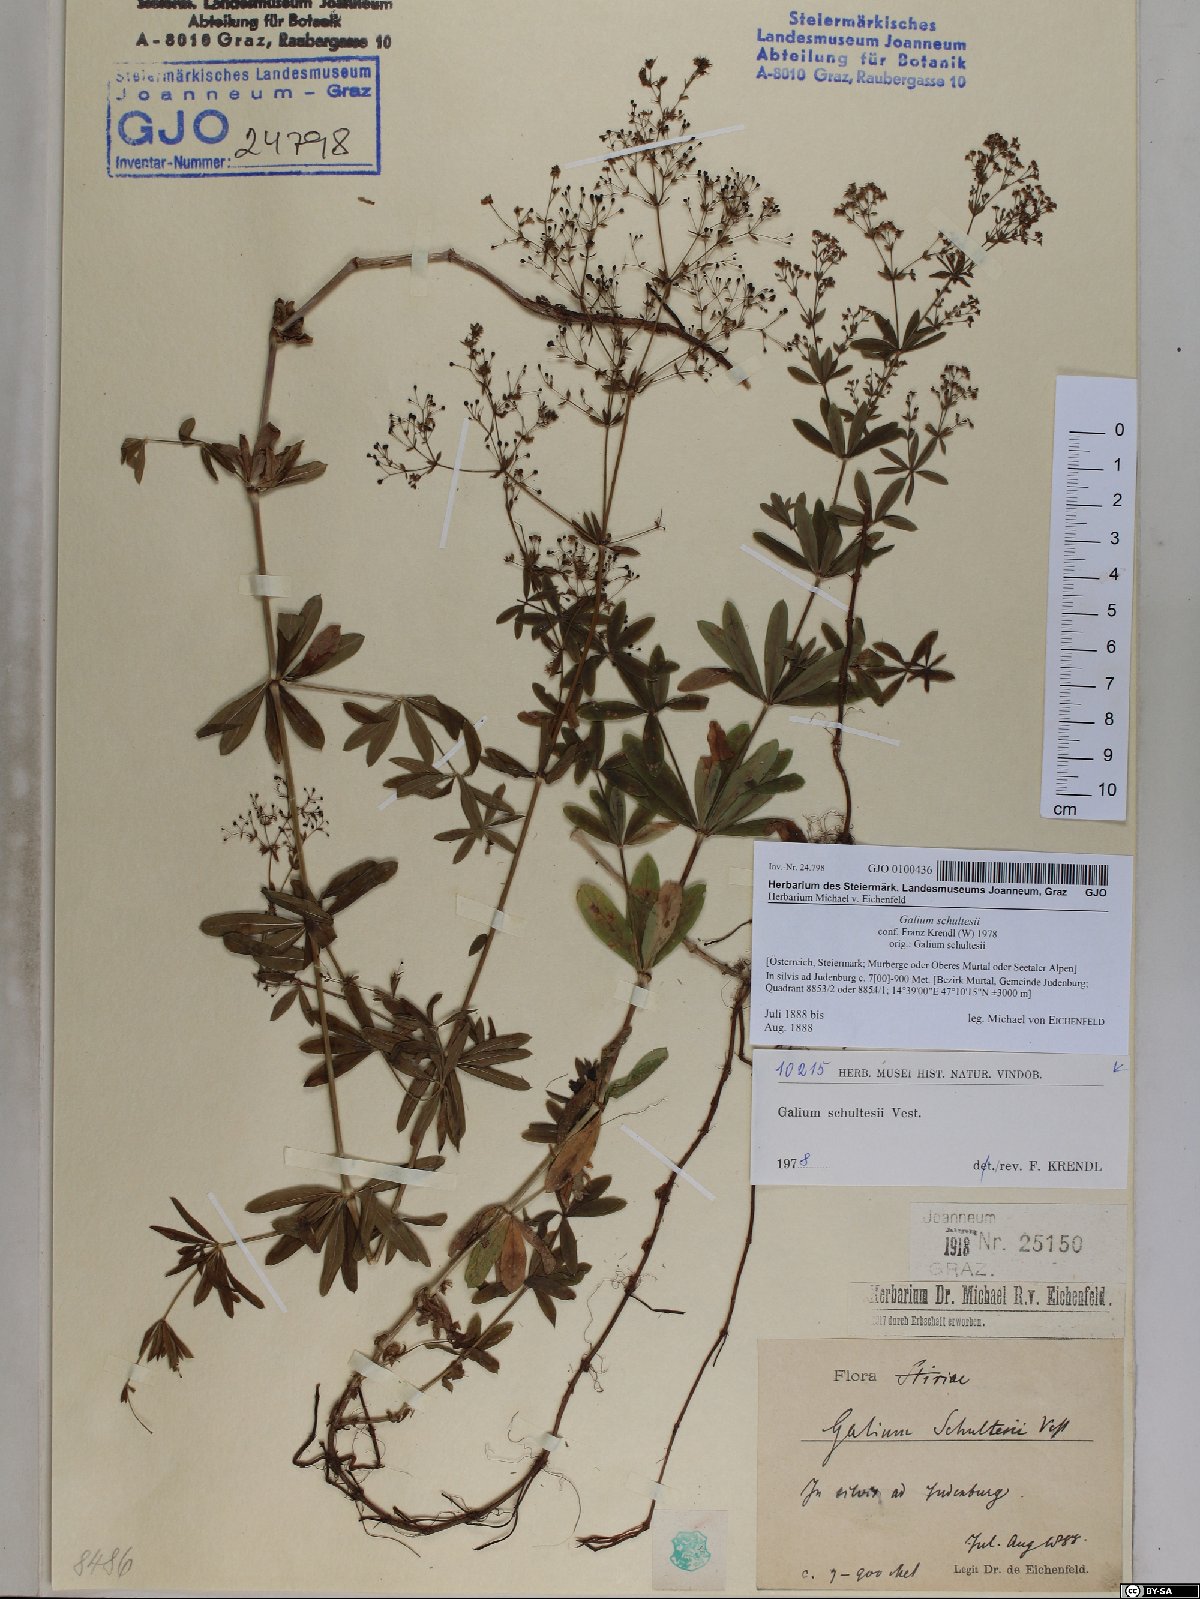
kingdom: Plantae
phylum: Tracheophyta
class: Magnoliopsida
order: Gentianales
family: Rubiaceae
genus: Galium
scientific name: Galium intermedium
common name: Bedstraw
